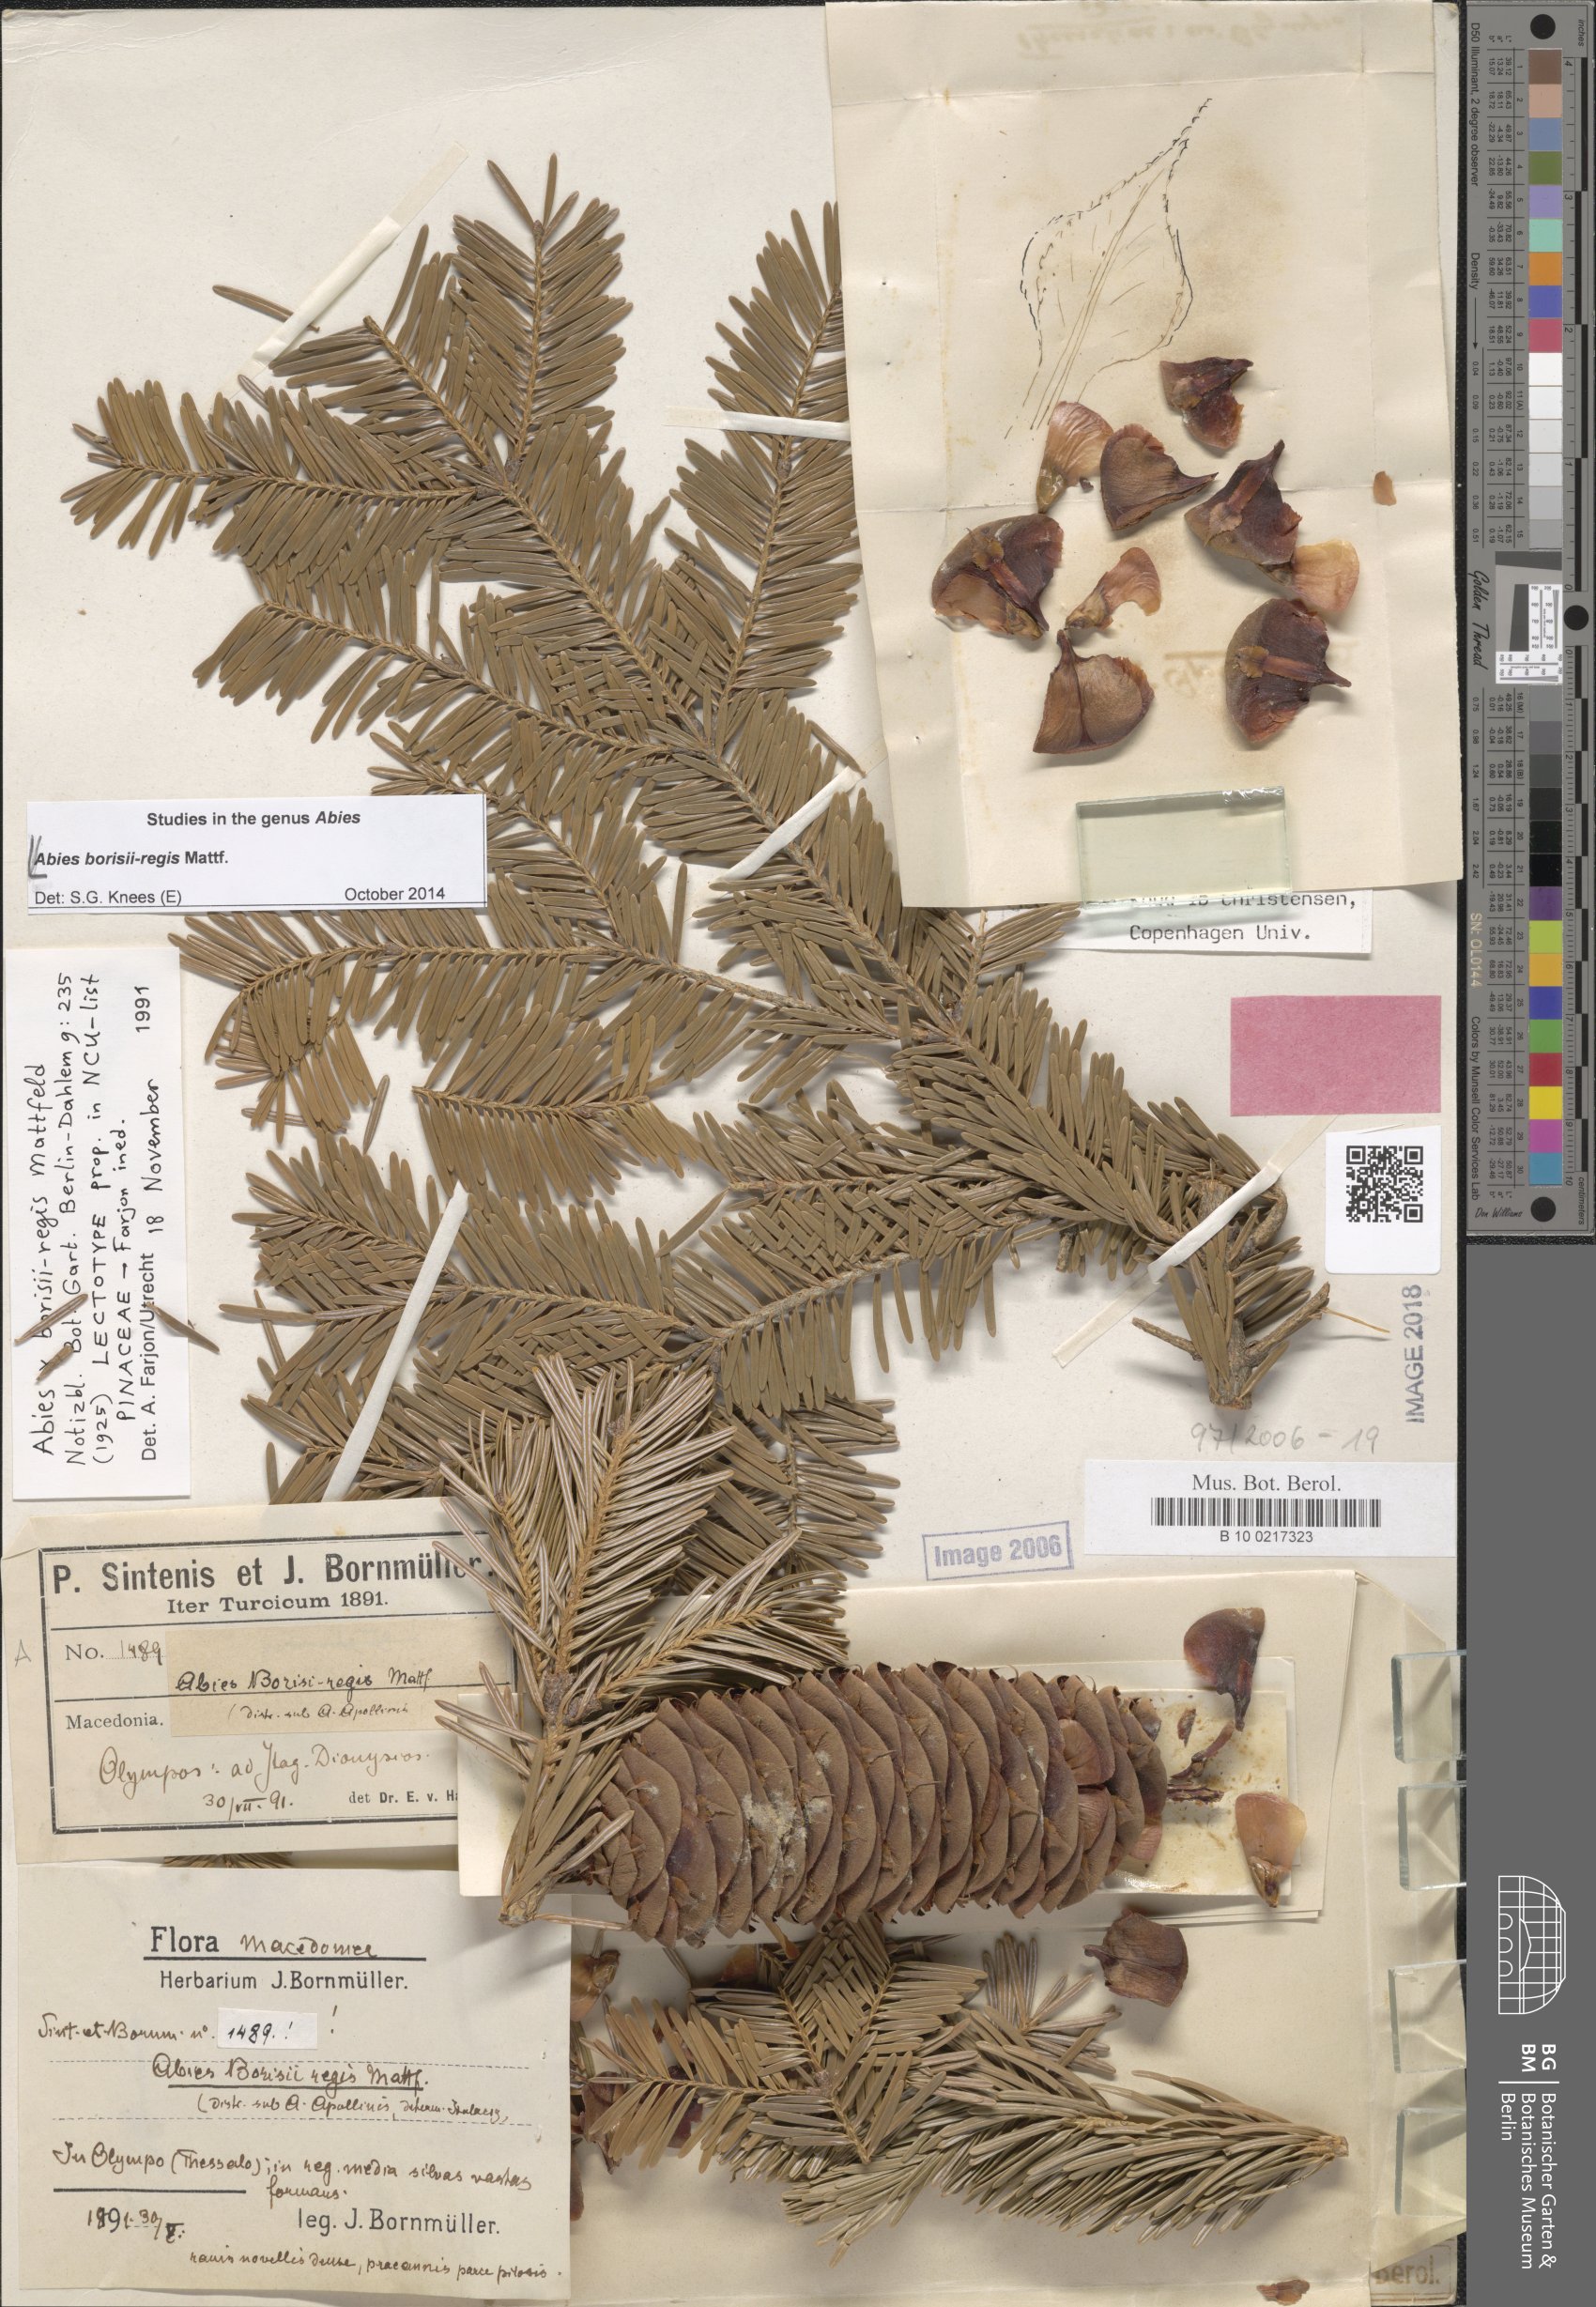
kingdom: Plantae
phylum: Tracheophyta
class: Pinopsida
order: Pinales
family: Pinaceae
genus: Abies
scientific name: Abies borisii-regis
